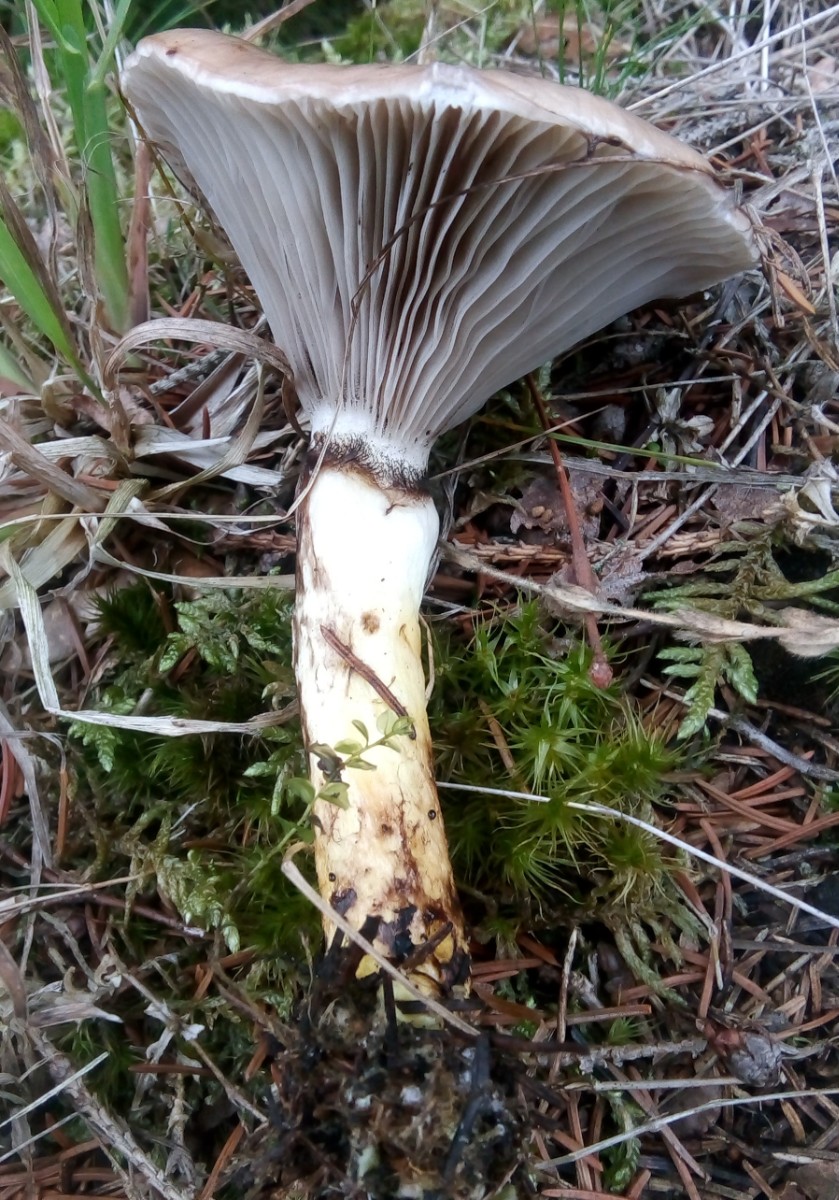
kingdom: Fungi
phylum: Basidiomycota
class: Agaricomycetes
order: Boletales
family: Gomphidiaceae
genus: Gomphidius
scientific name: Gomphidius glutinosus
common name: grå slimslør
